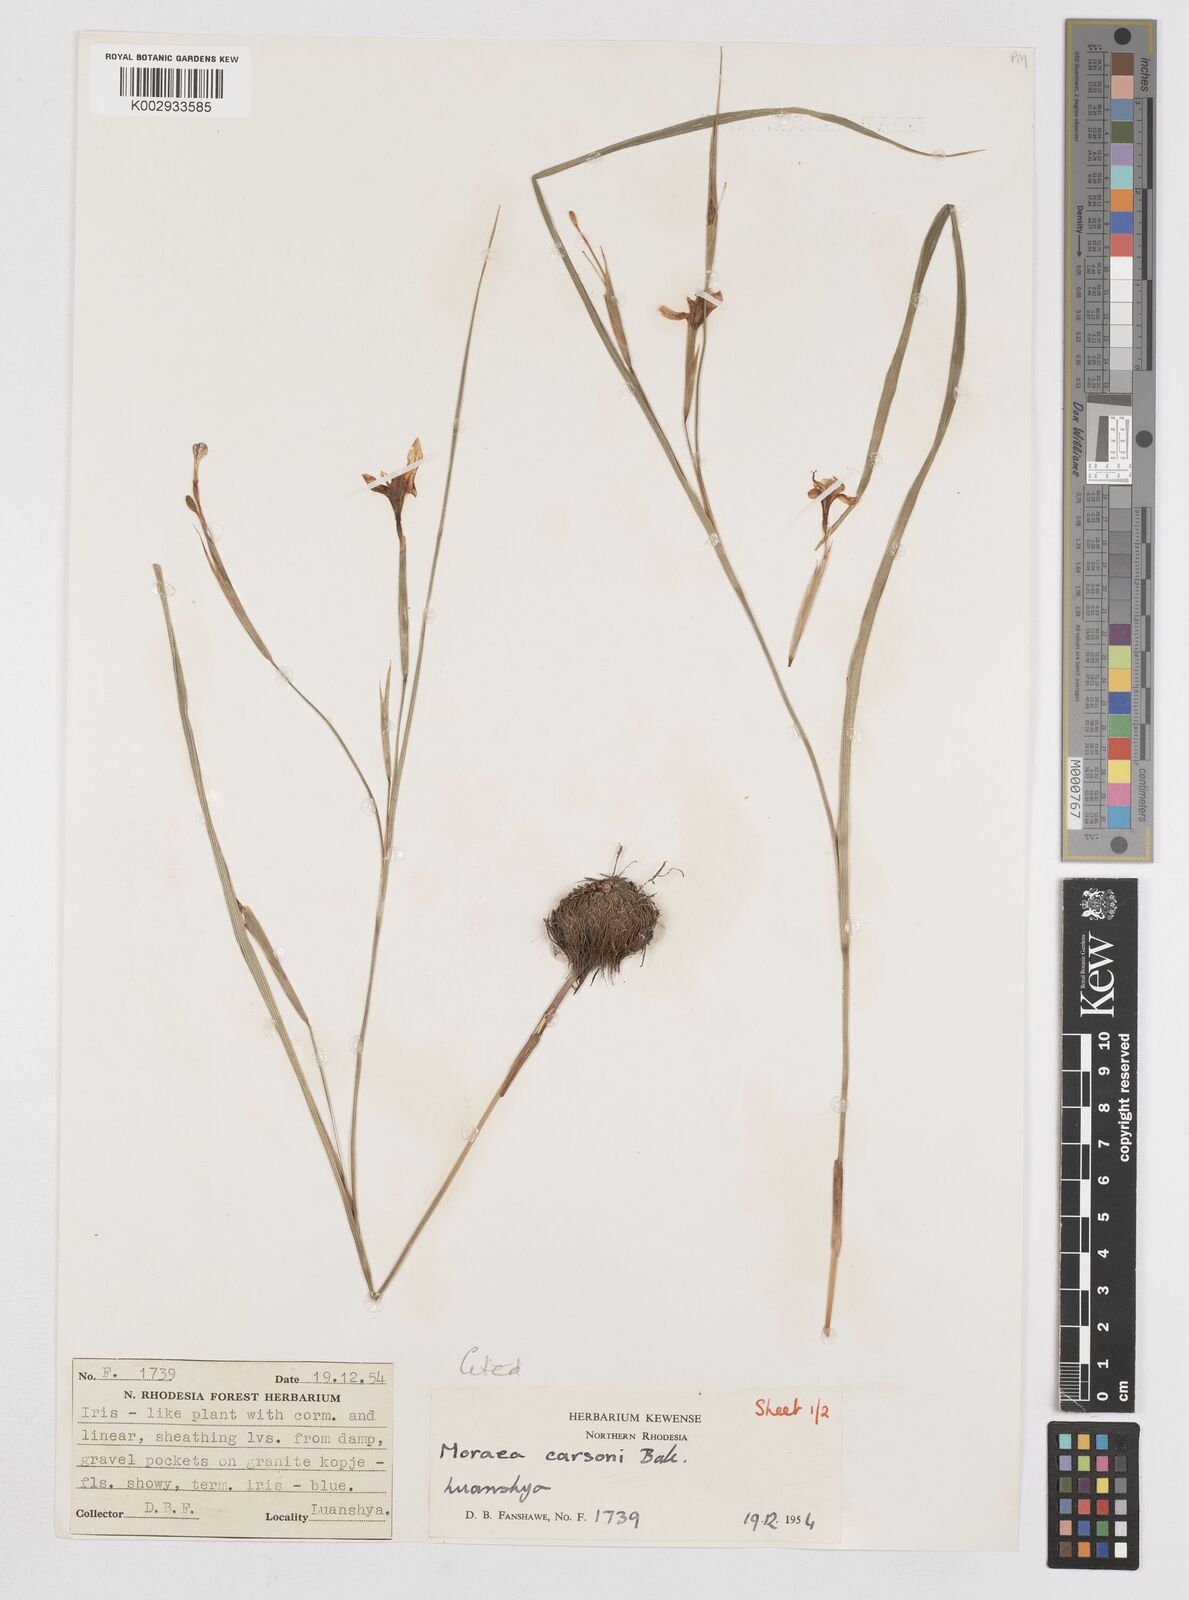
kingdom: Plantae
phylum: Tracheophyta
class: Liliopsida
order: Asparagales
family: Iridaceae
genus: Moraea
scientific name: Moraea carsonii
